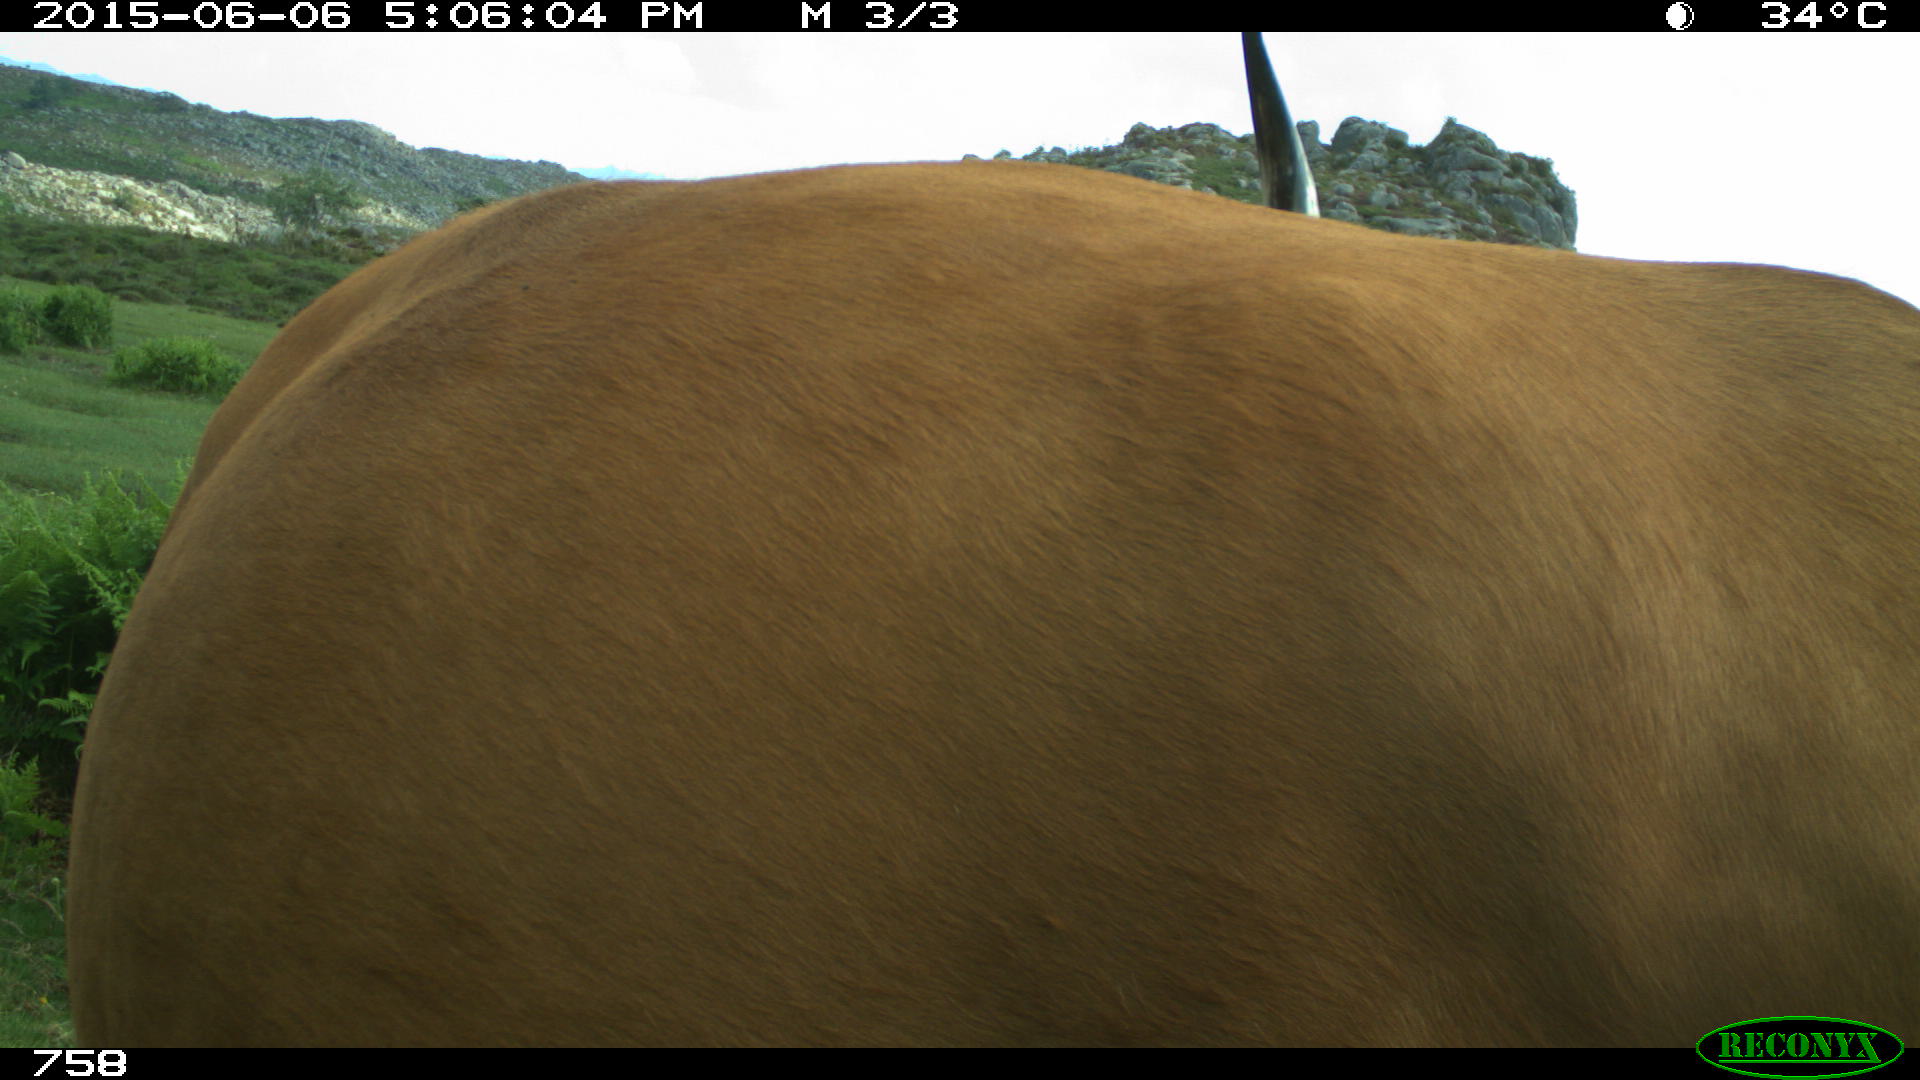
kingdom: Animalia
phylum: Chordata
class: Mammalia
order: Artiodactyla
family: Bovidae
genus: Bos
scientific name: Bos taurus
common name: Domesticated cattle
